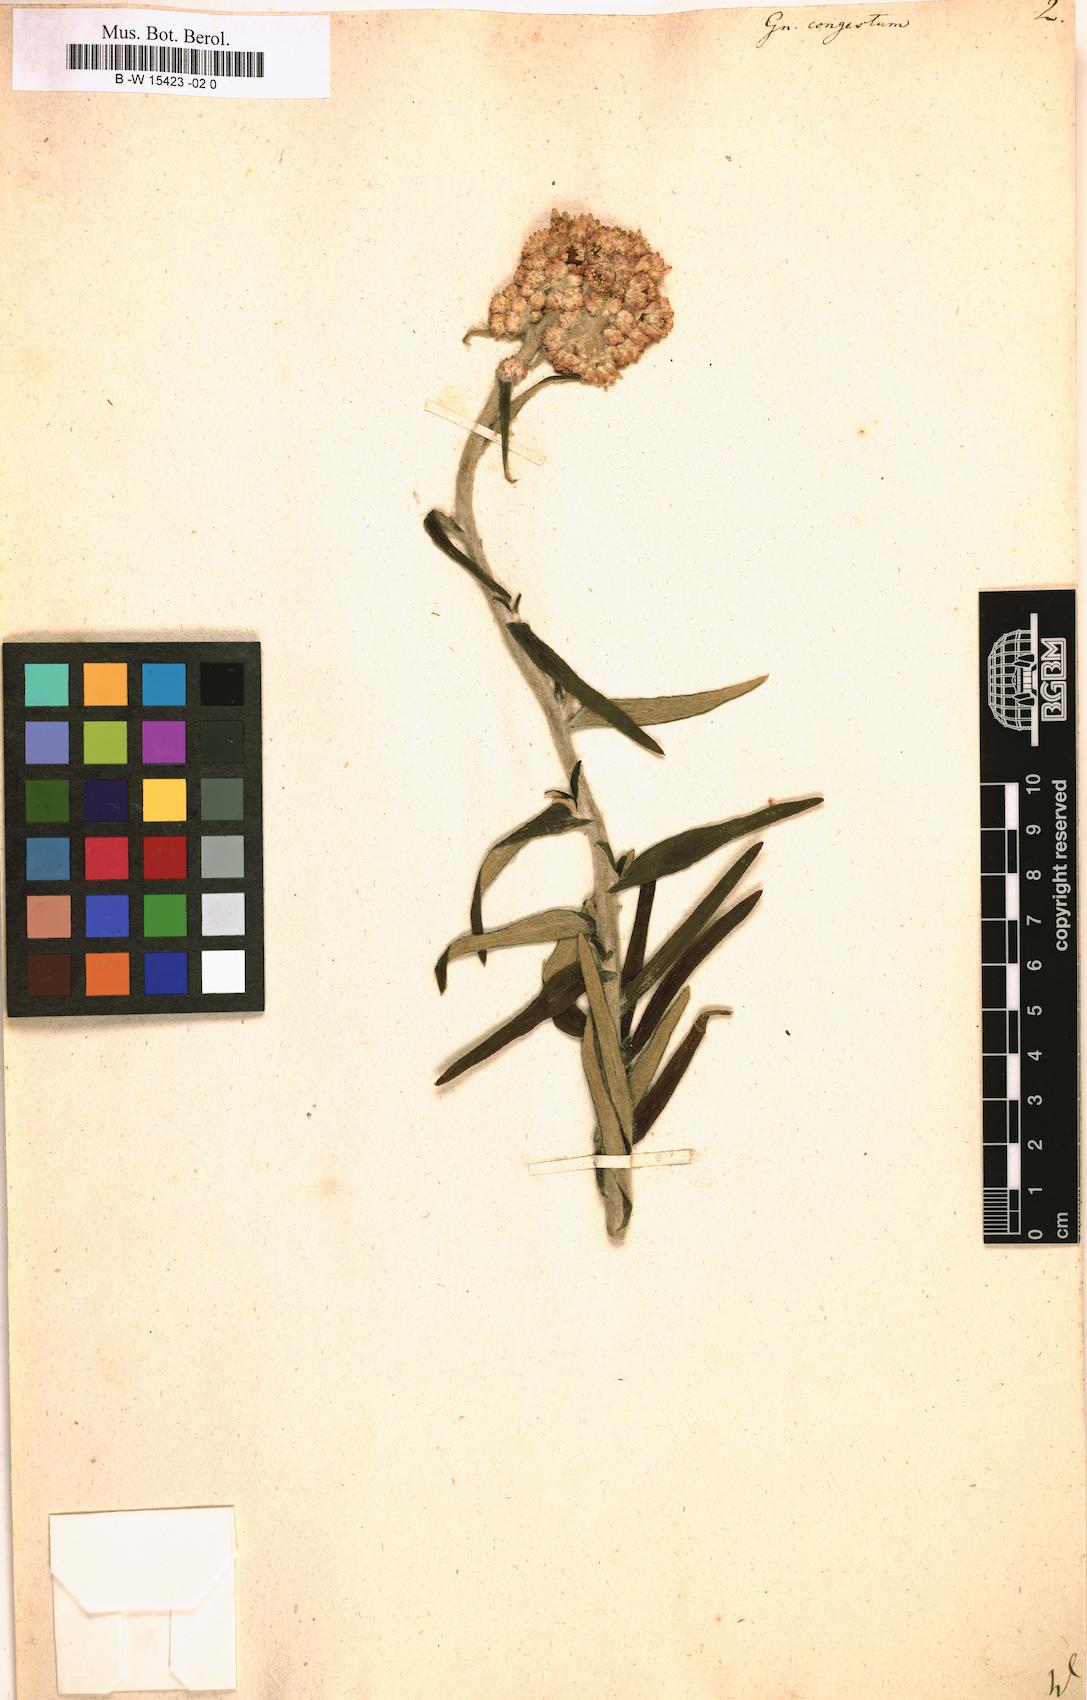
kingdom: Plantae
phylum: Tracheophyta
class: Magnoliopsida
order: Asterales
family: Asteraceae
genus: Helichrysum
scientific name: Helichrysum felinum
